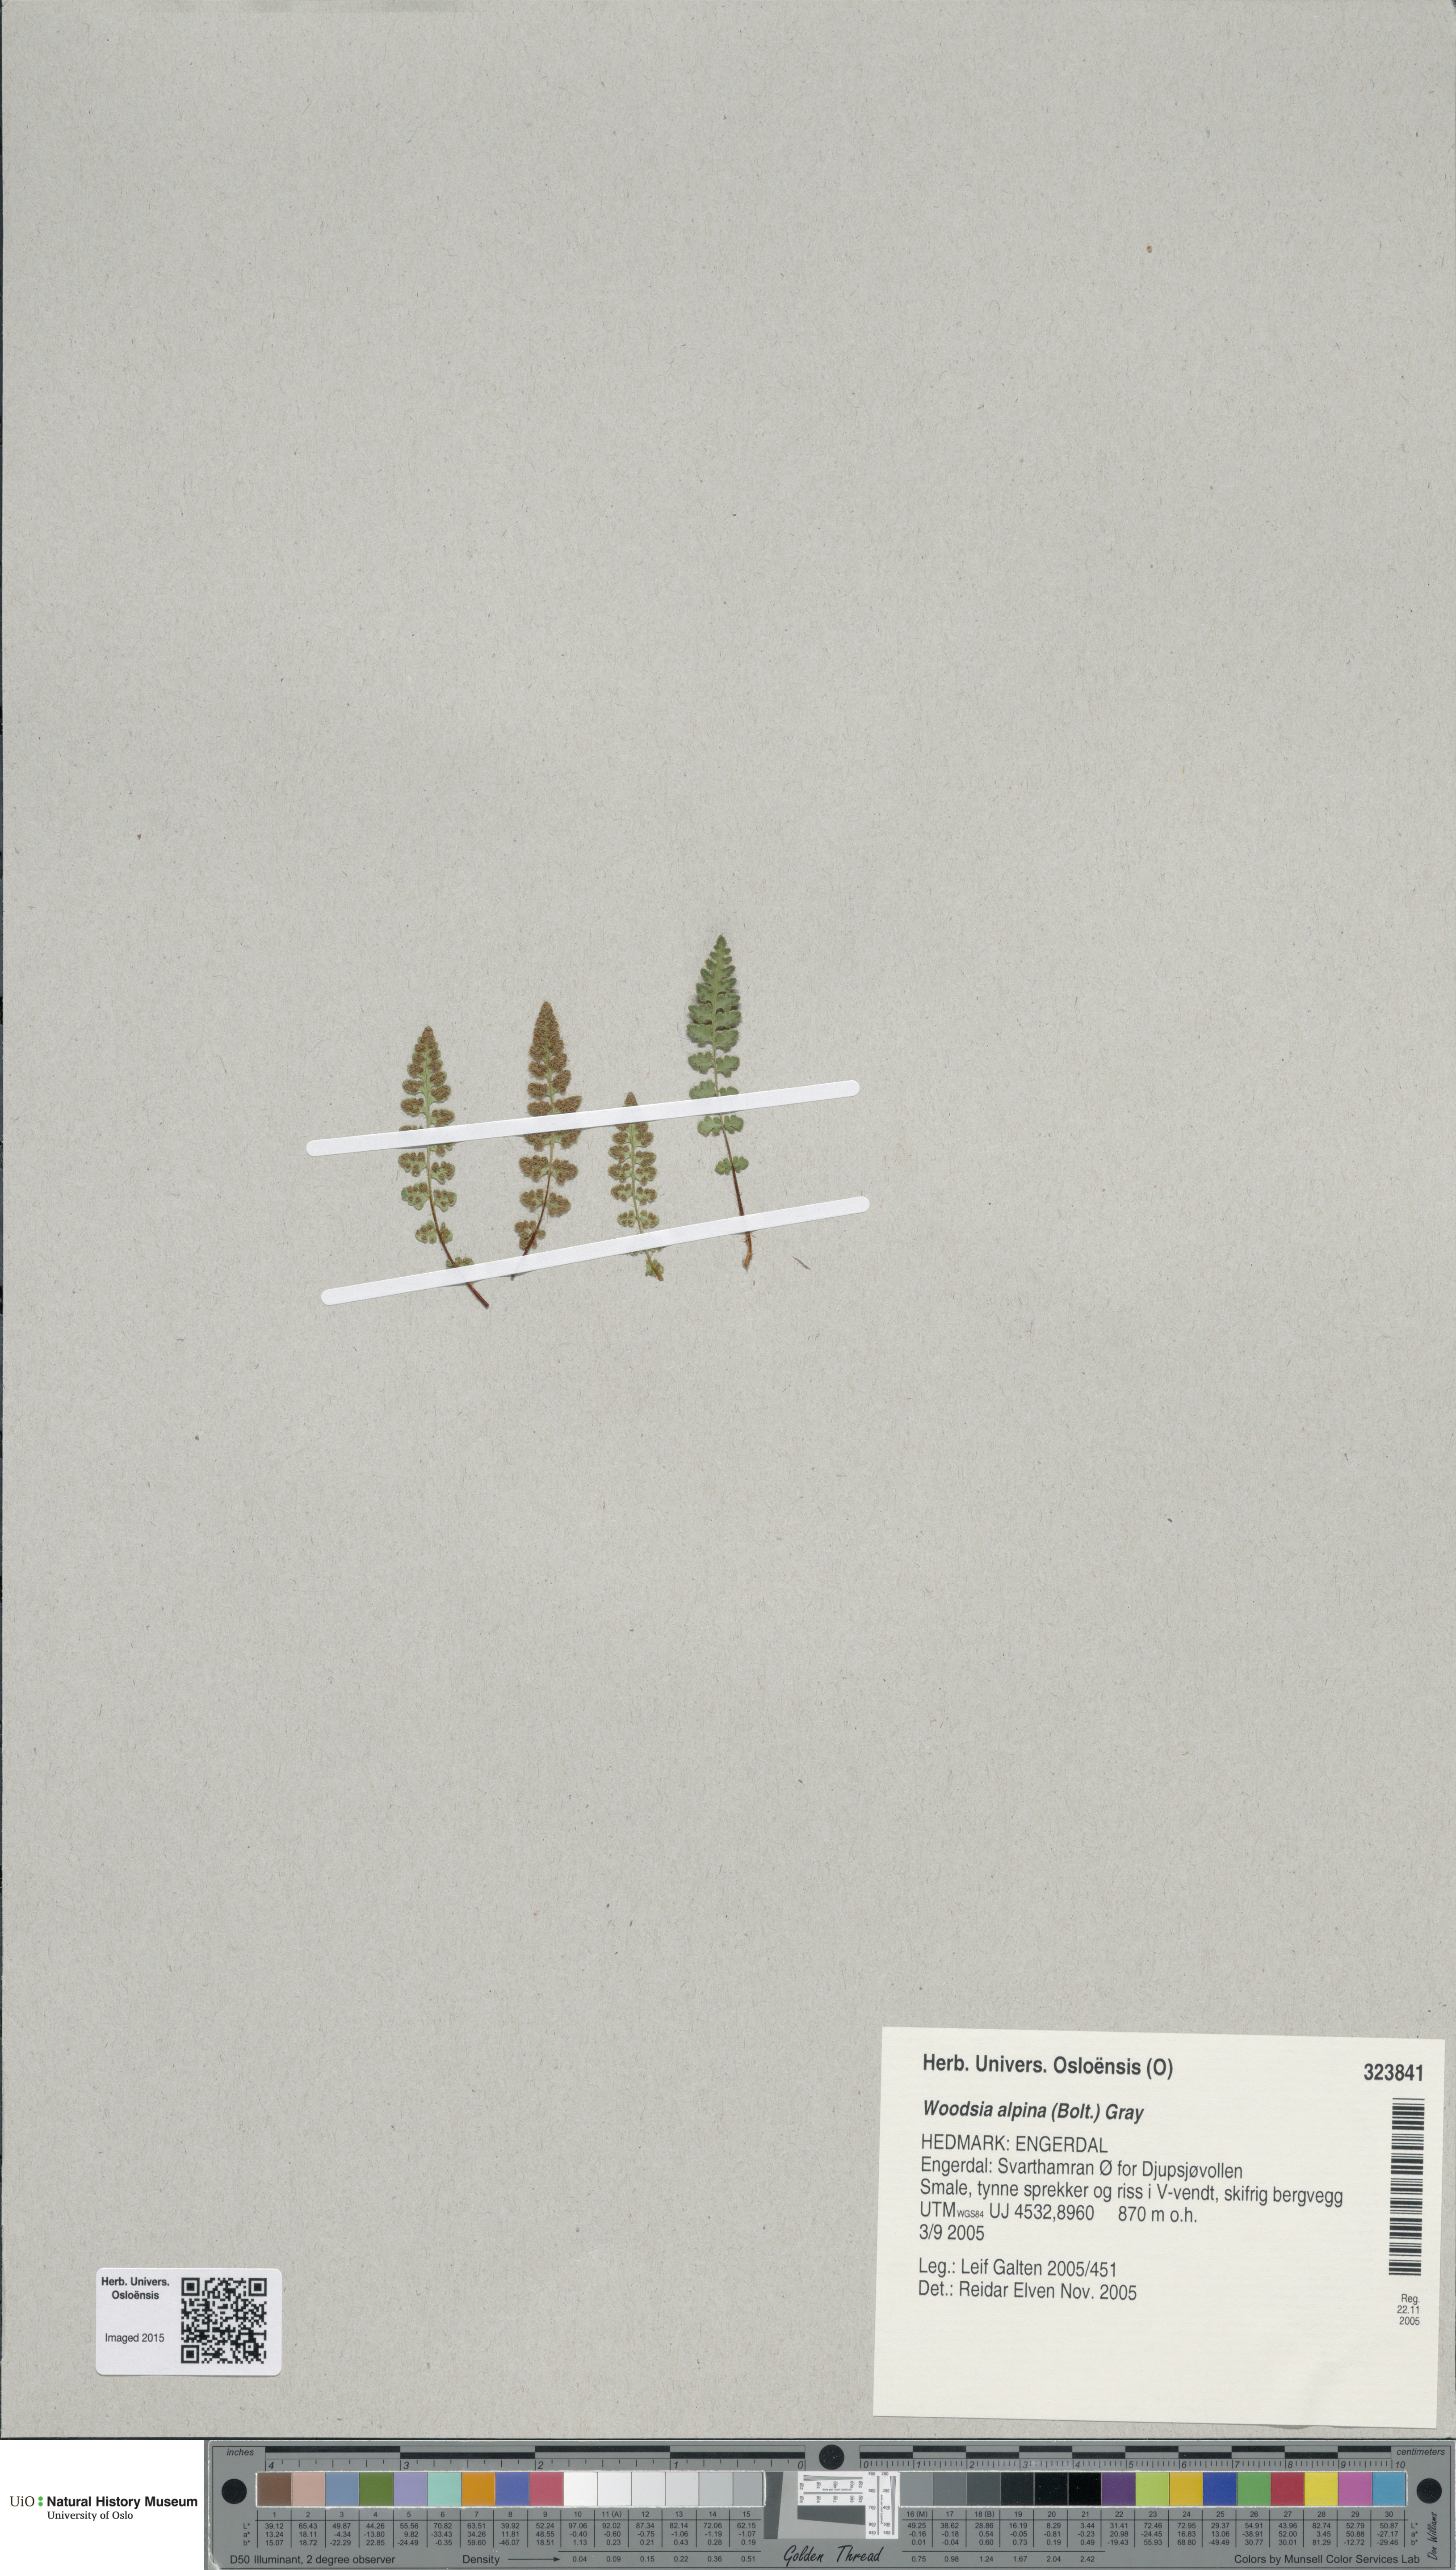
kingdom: Plantae
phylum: Tracheophyta
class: Polypodiopsida
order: Polypodiales
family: Woodsiaceae
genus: Woodsia
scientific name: Woodsia alpina
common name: Alpine woodsia
